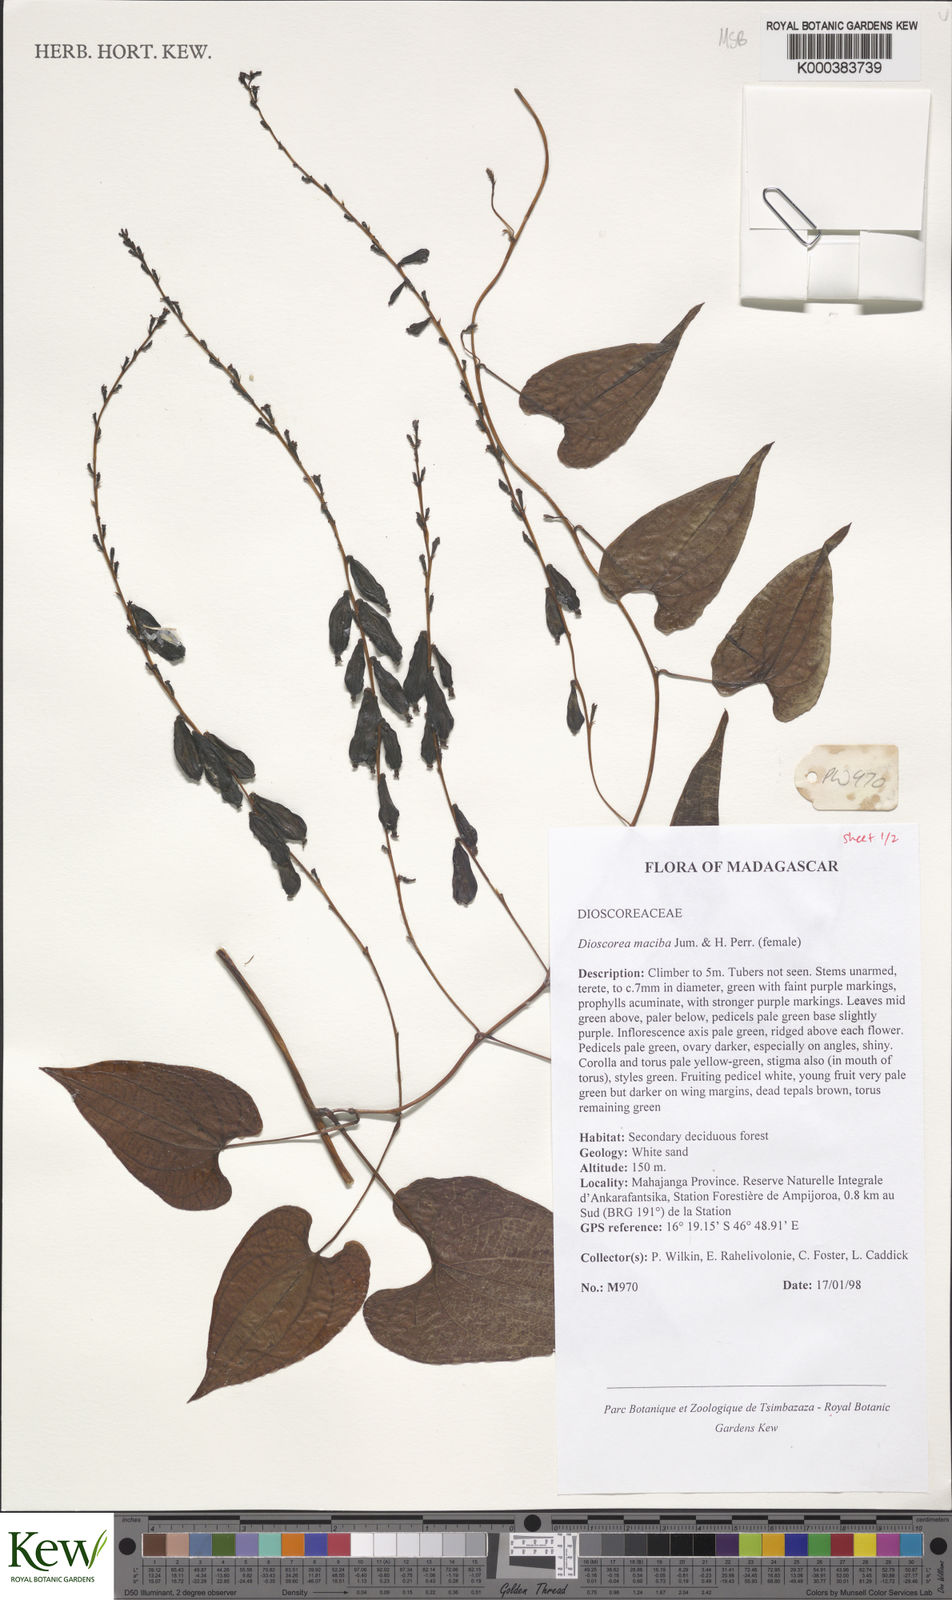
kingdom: Plantae
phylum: Tracheophyta
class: Liliopsida
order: Dioscoreales
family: Dioscoreaceae
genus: Dioscorea
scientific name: Dioscorea maciba
